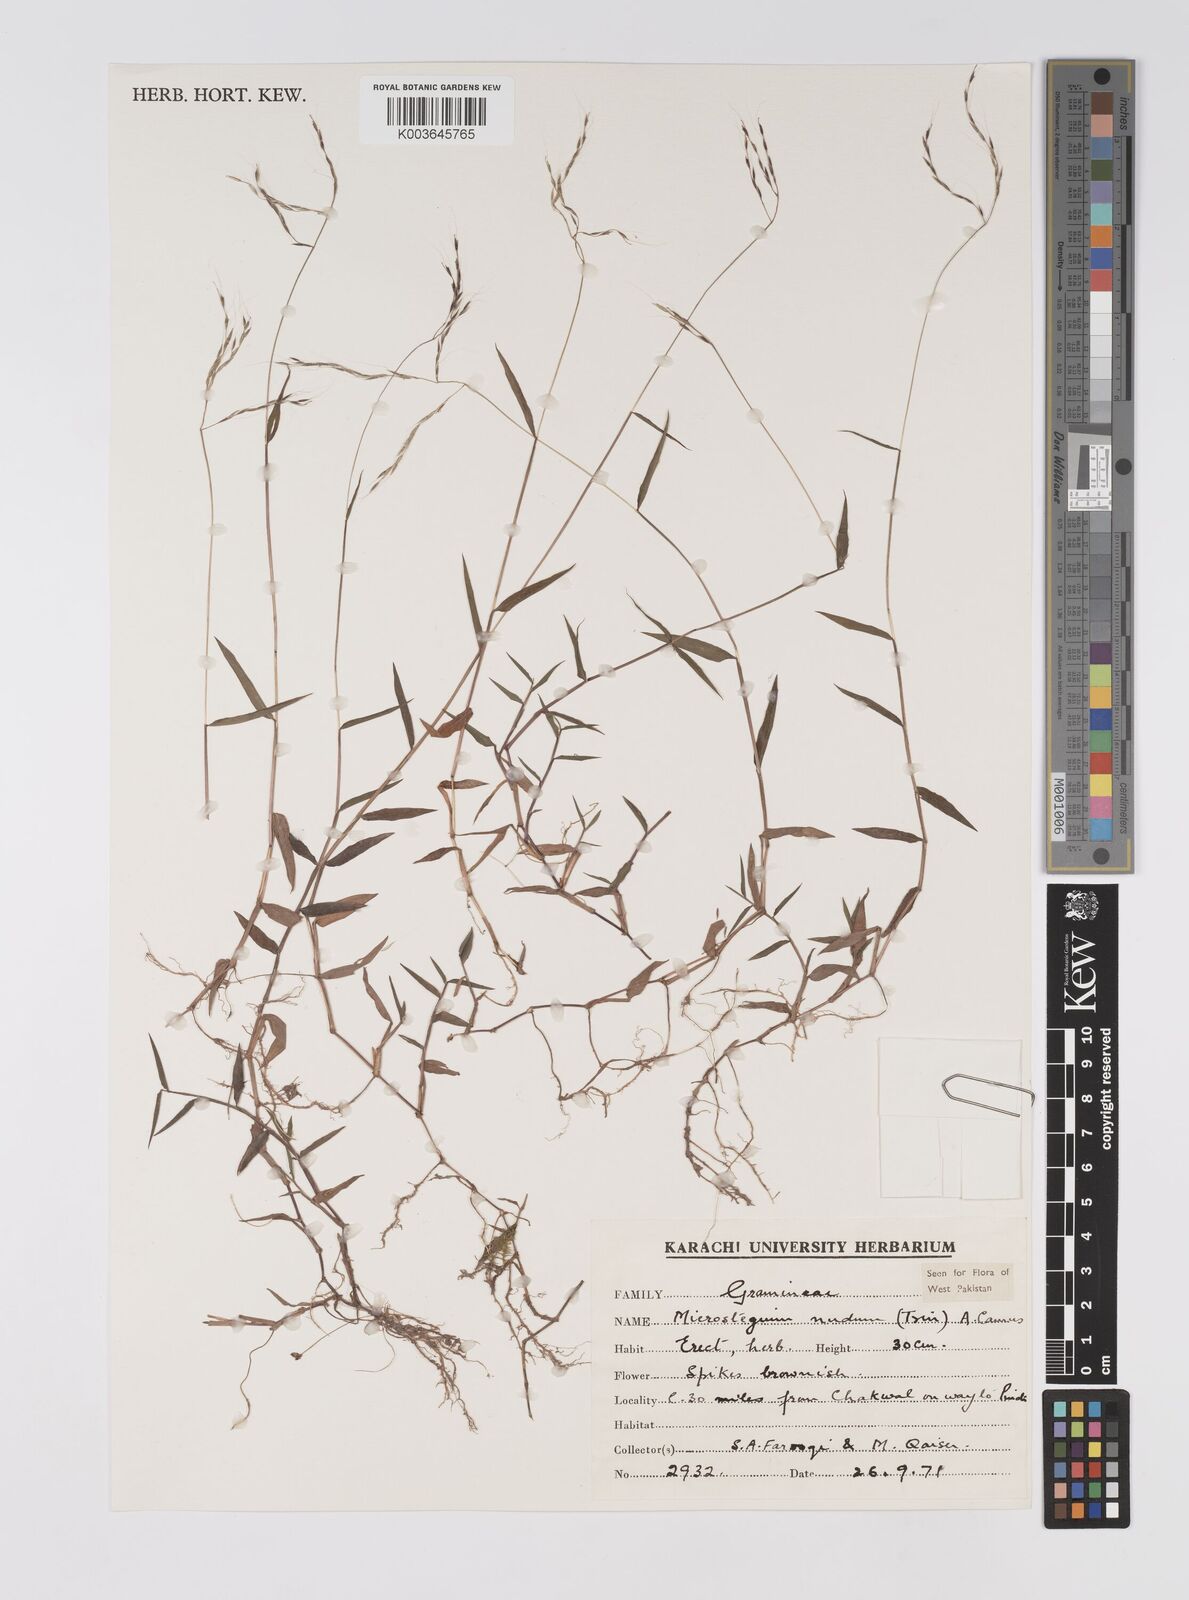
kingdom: Plantae
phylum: Tracheophyta
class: Liliopsida
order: Poales
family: Poaceae
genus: Microstegium
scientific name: Microstegium nudum
